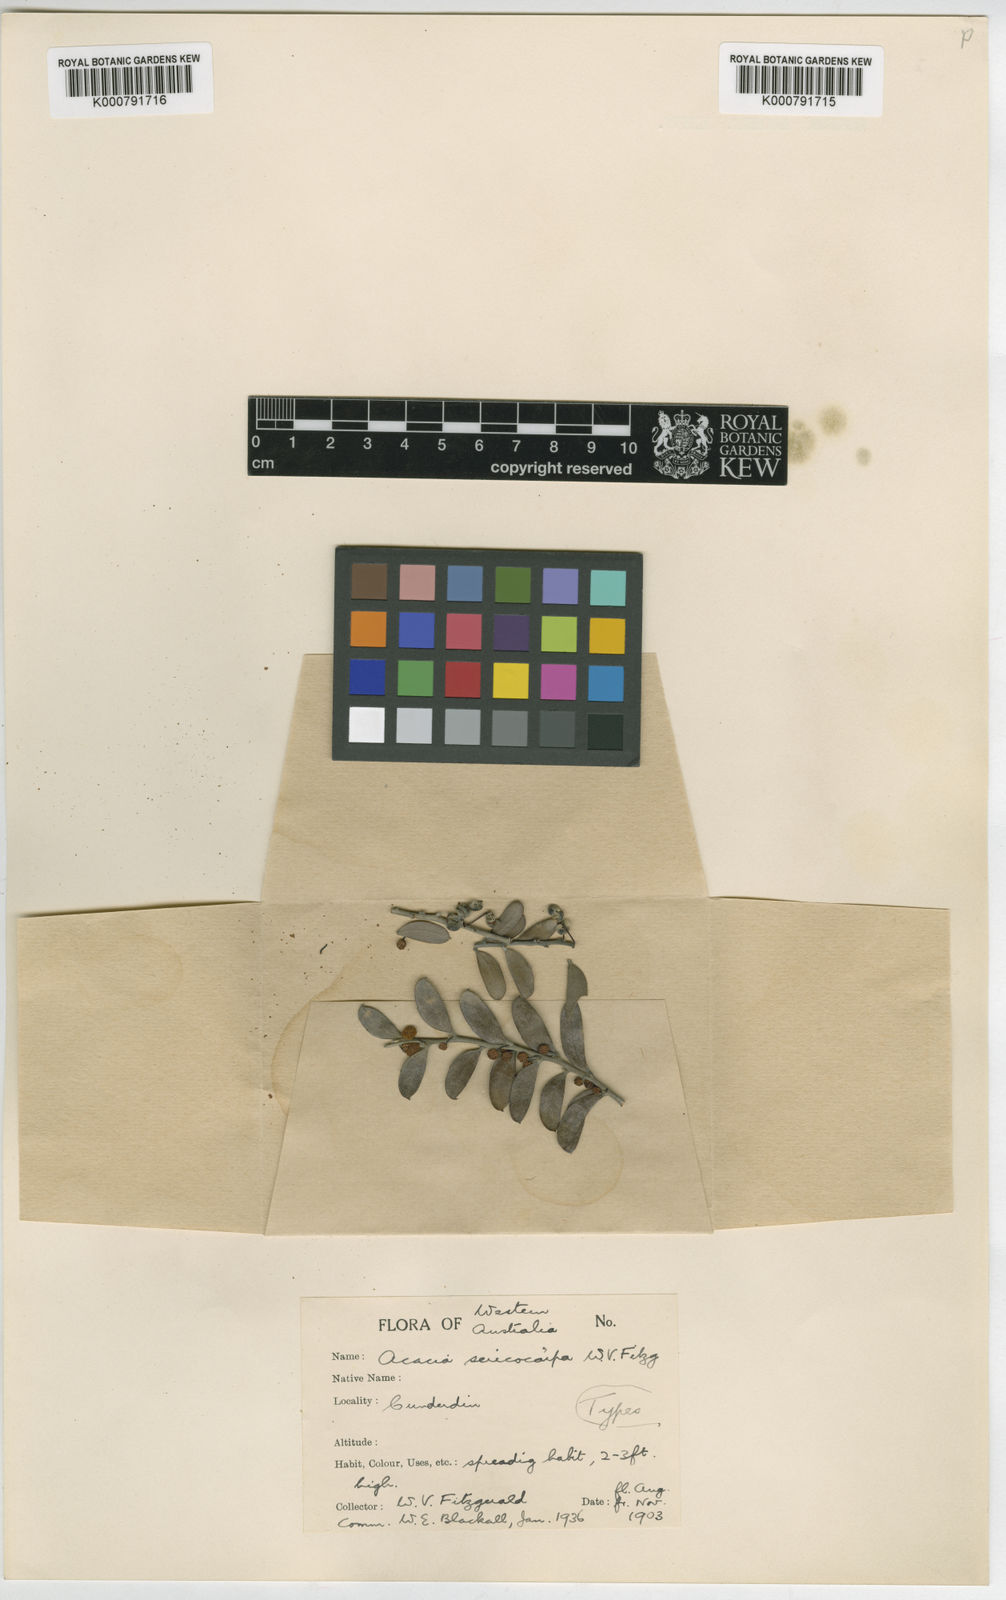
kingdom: Plantae
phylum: Tracheophyta
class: Magnoliopsida
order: Fabales
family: Fabaceae
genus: Acacia
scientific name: Acacia merrallii
